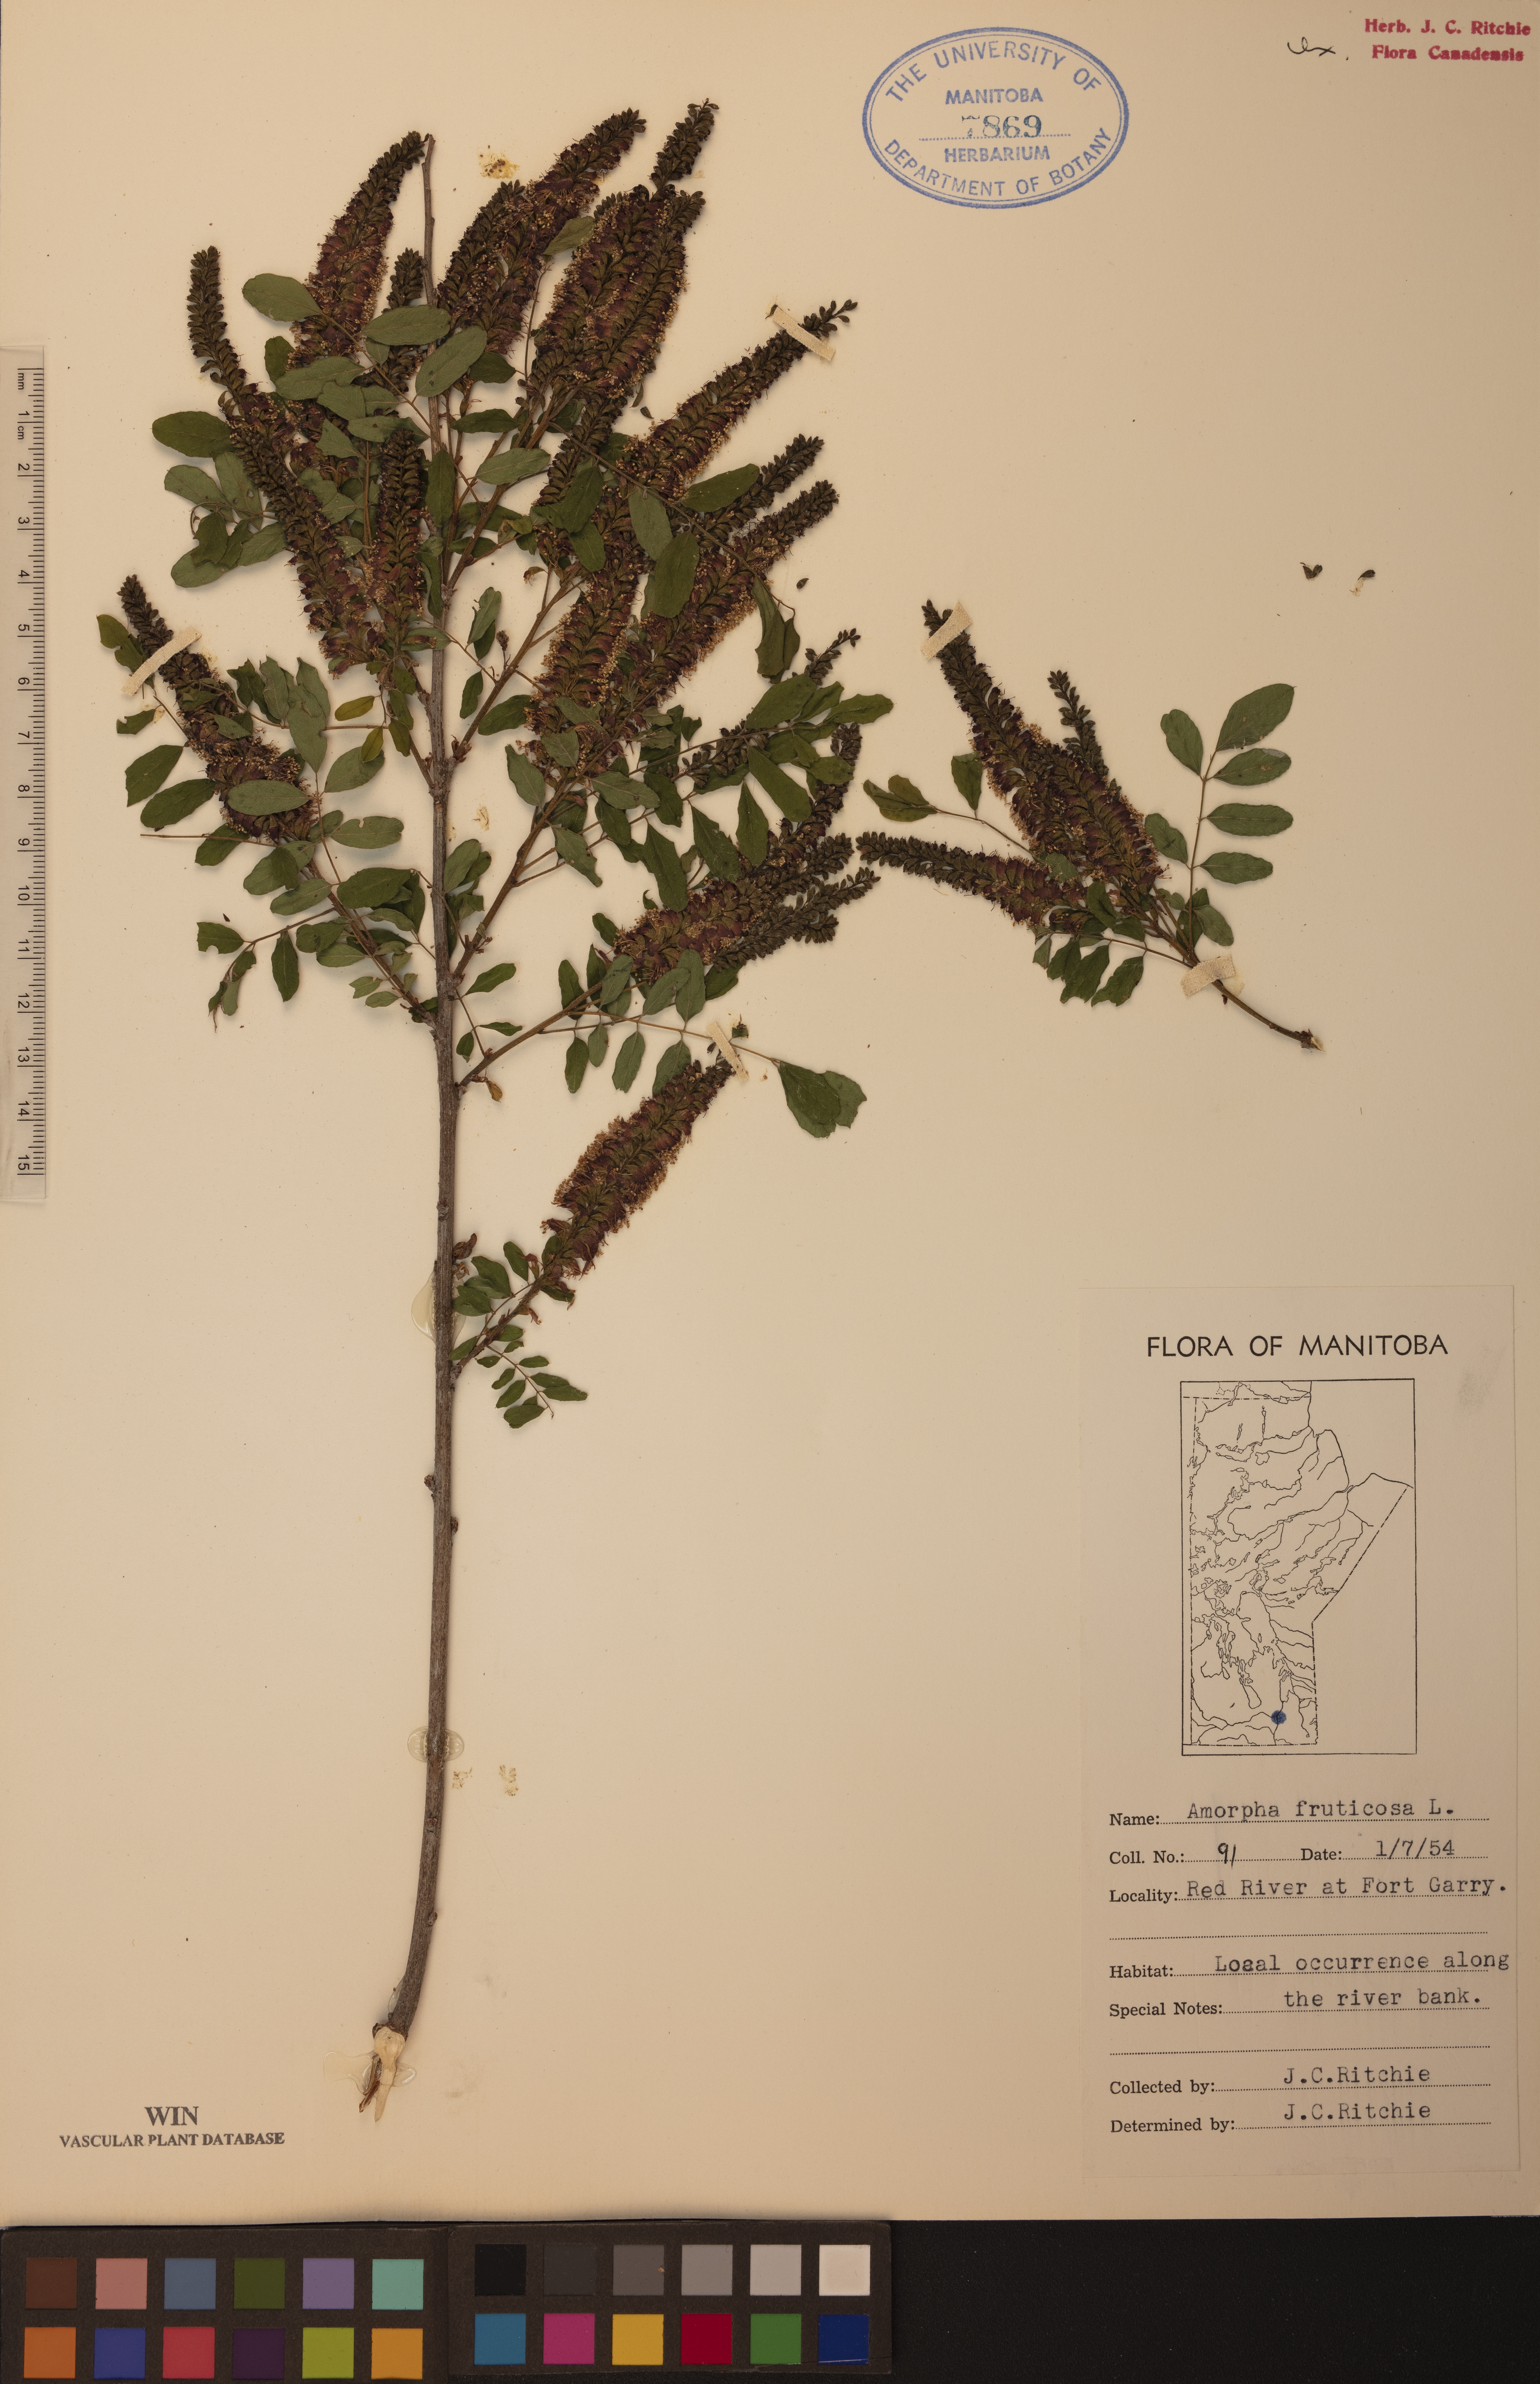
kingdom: Plantae
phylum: Tracheophyta
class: Magnoliopsida
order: Fabales
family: Fabaceae
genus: Amorpha
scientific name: Amorpha fruticosa
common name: False indigo
